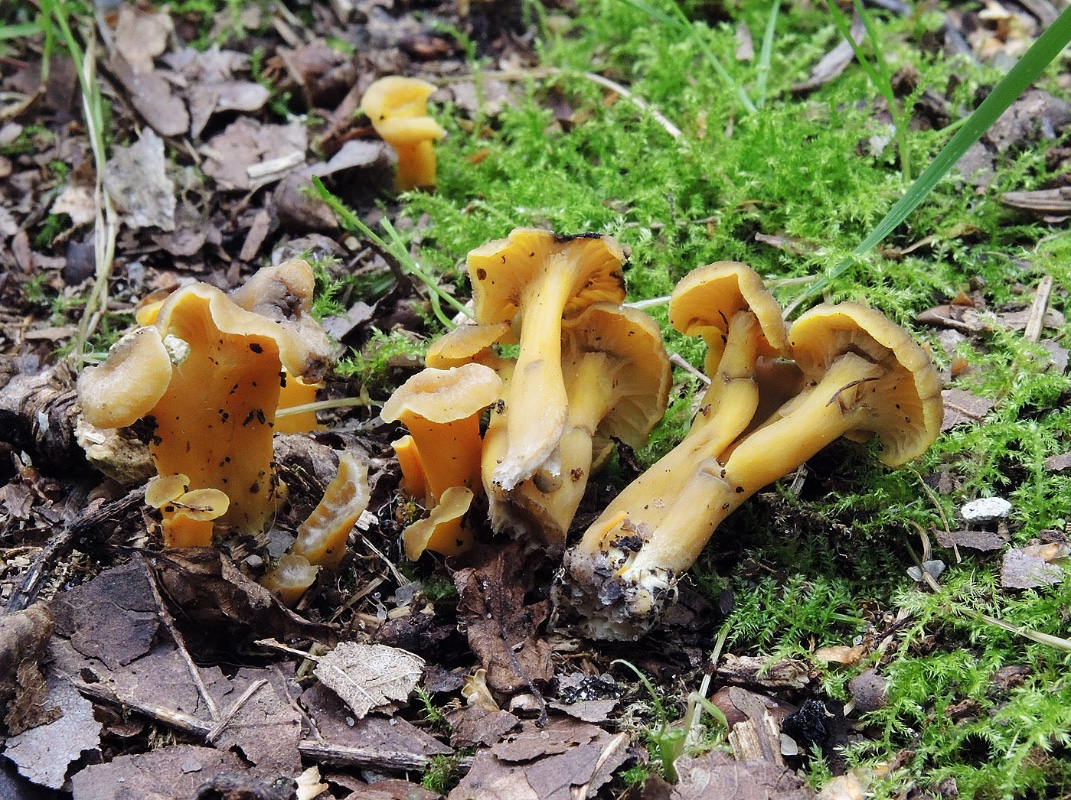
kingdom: Fungi
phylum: Basidiomycota
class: Agaricomycetes
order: Cantharellales
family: Hydnaceae
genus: Cantharellus
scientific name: Cantharellus melanoxeros
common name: sværtende kantarel
